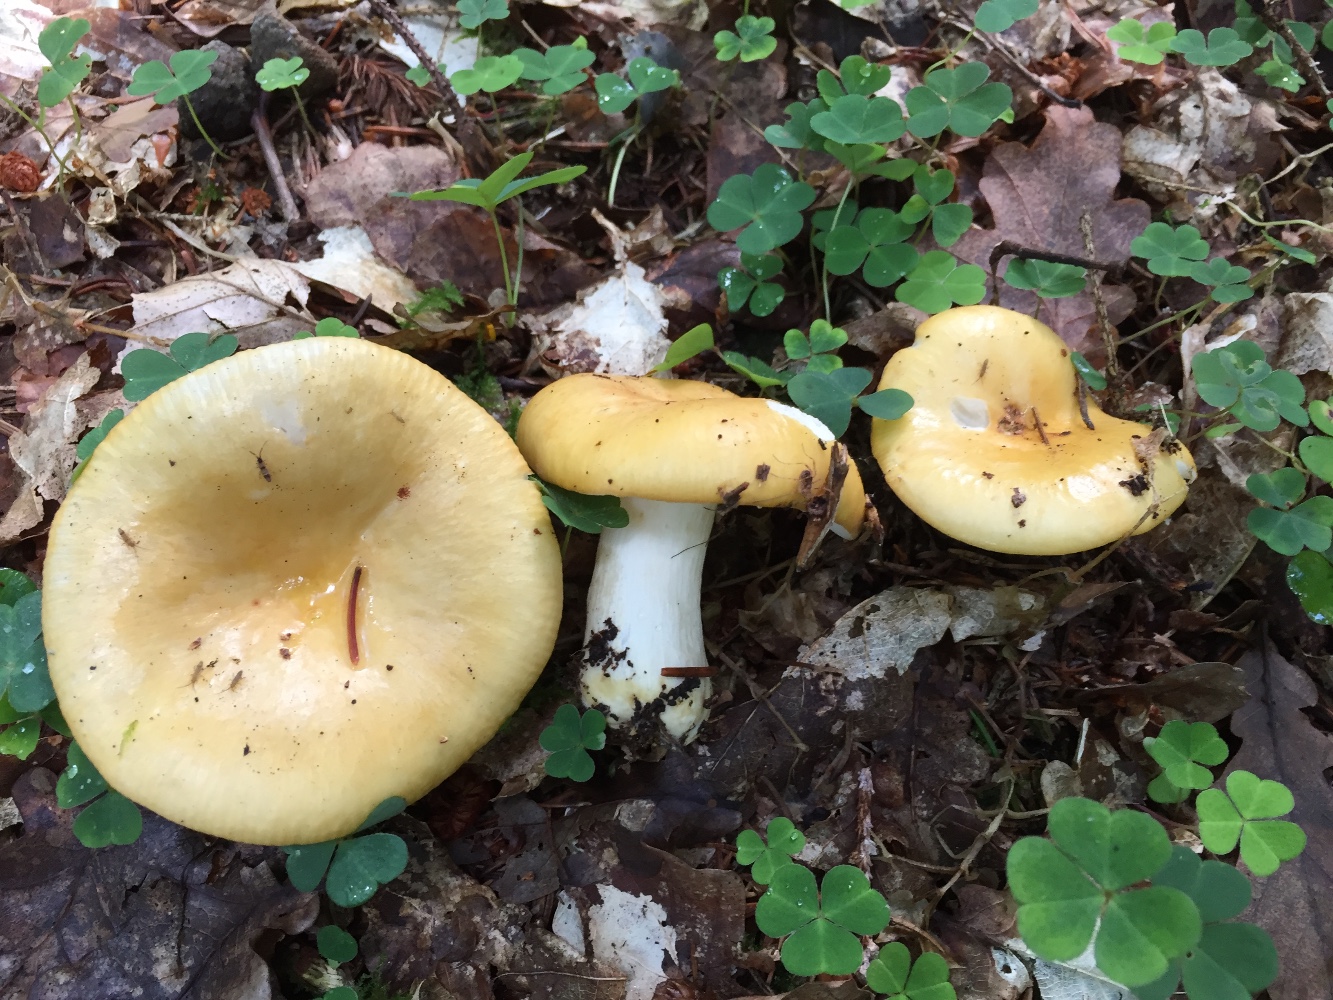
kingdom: Fungi
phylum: Basidiomycota
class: Agaricomycetes
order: Russulales
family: Russulaceae
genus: Russula
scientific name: Russula ochroleuca
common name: okkergul skørhat
